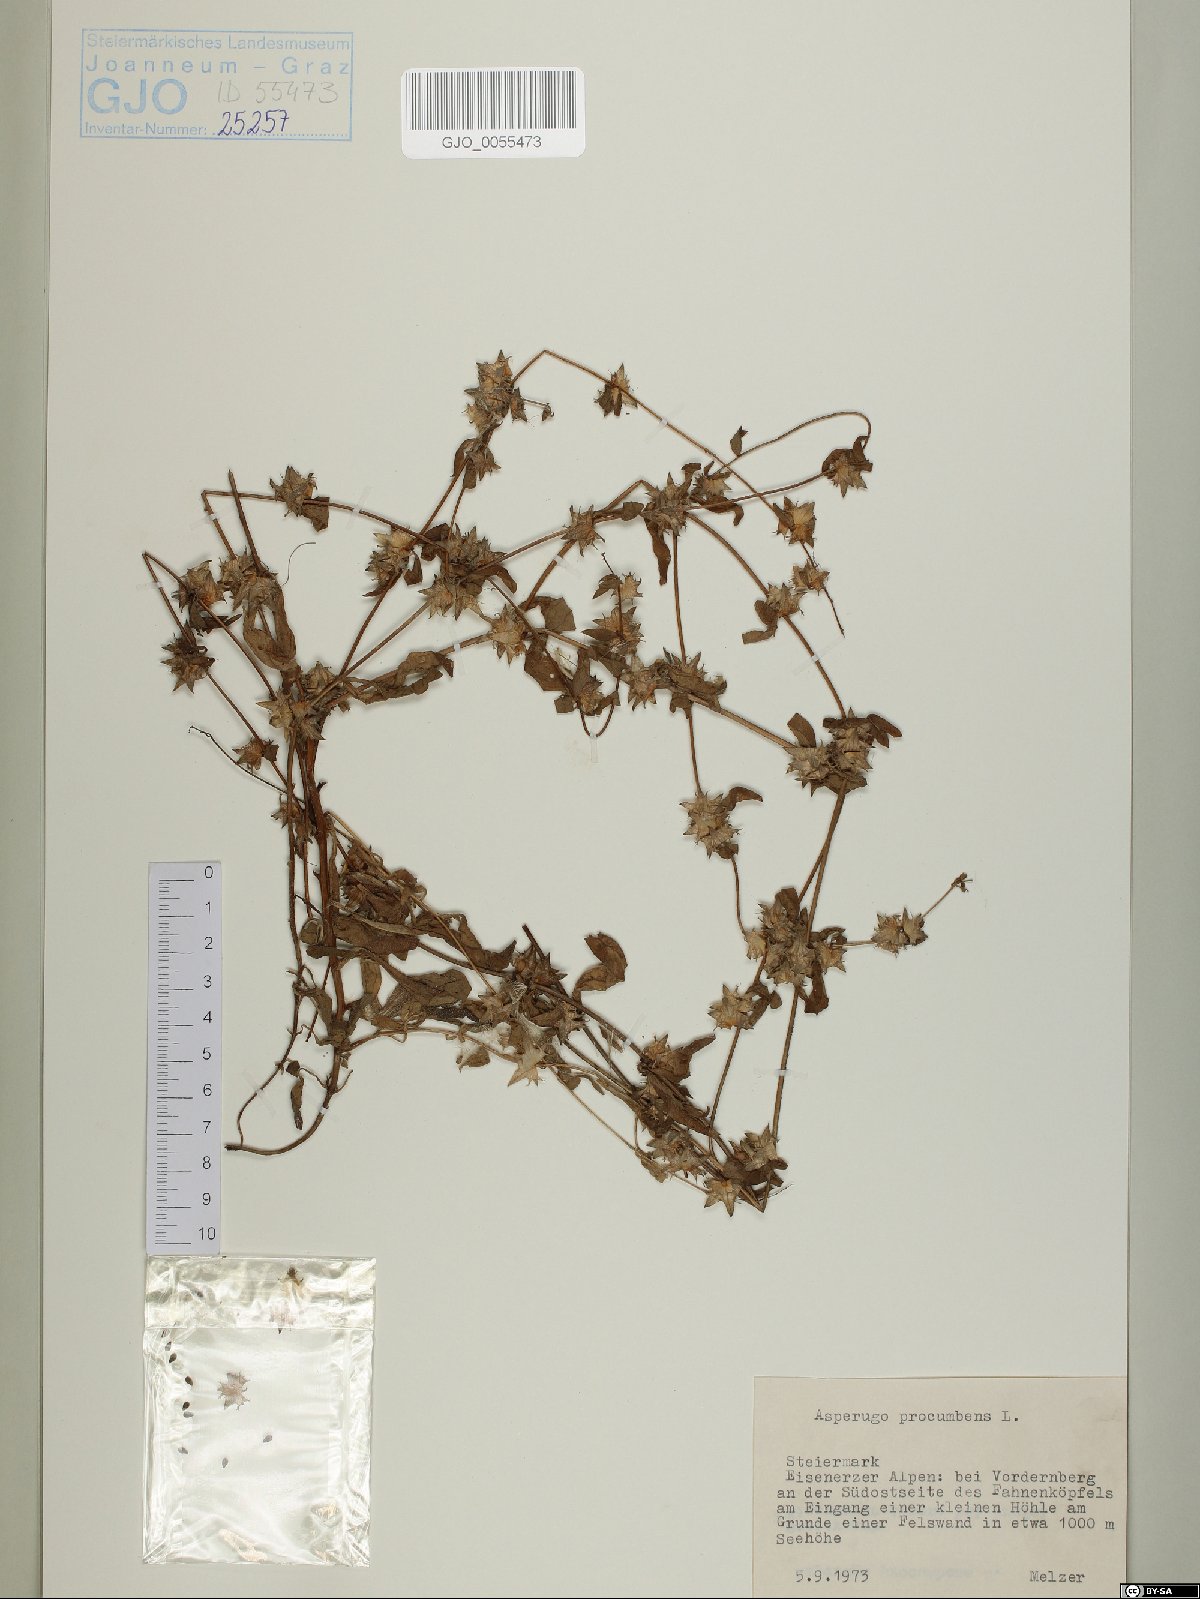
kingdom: Plantae
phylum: Tracheophyta
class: Magnoliopsida
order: Boraginales
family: Boraginaceae
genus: Asperugo
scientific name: Asperugo procumbens
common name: Madwort
